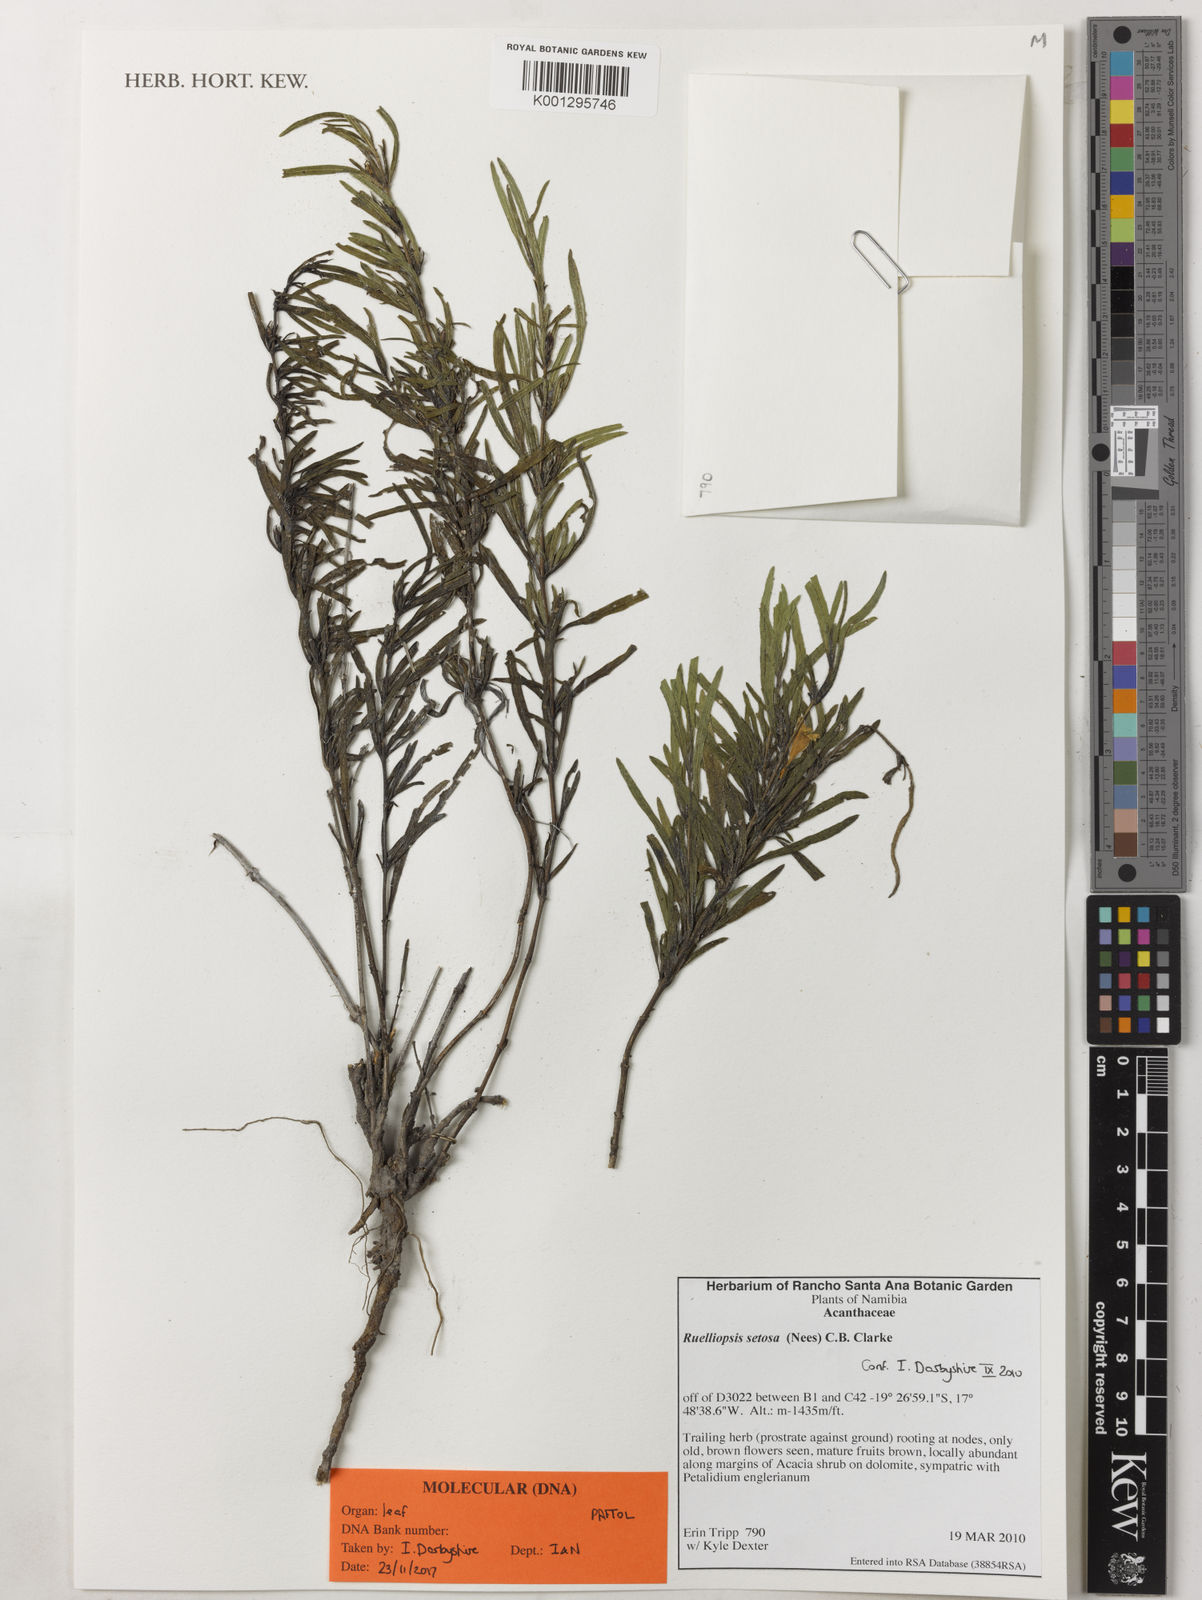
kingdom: Plantae
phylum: Tracheophyta
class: Magnoliopsida
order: Lamiales
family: Acanthaceae
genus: Ruelliopsis
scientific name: Ruelliopsis setosa
